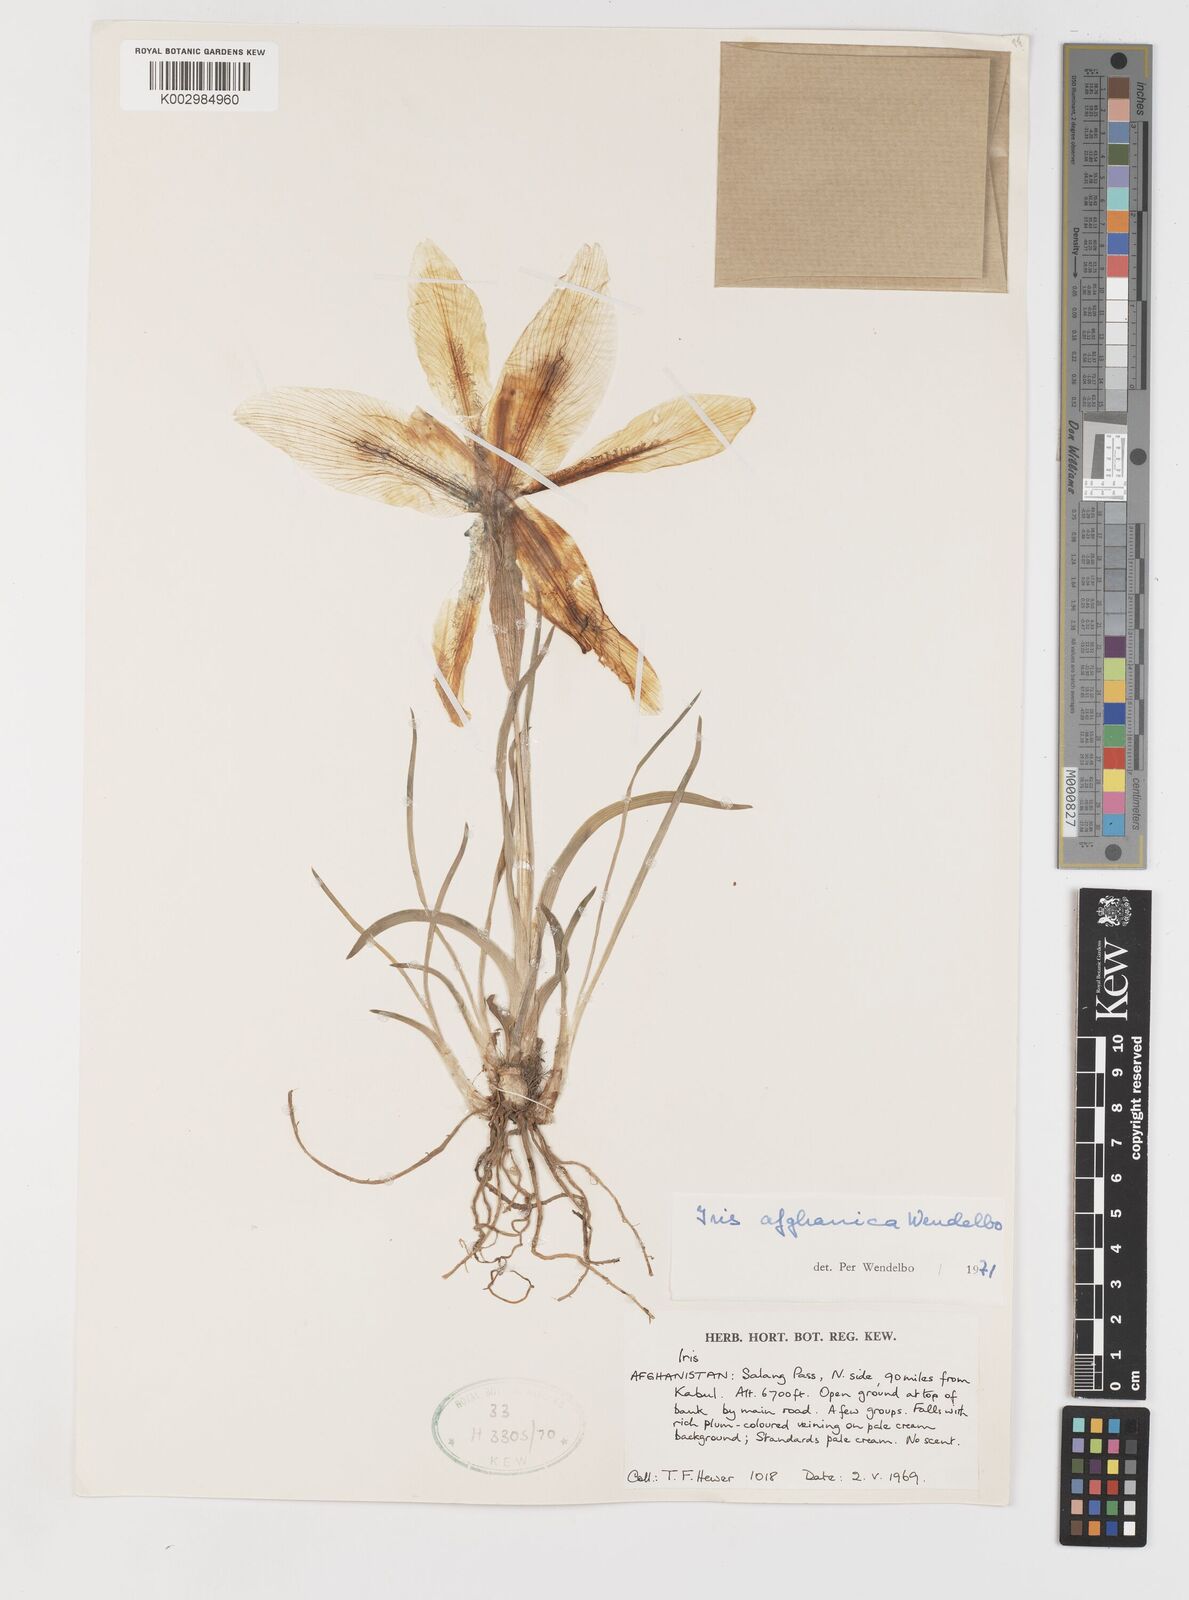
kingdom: Plantae
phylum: Tracheophyta
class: Liliopsida
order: Asparagales
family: Iridaceae
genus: Iris
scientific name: Iris afghanica
